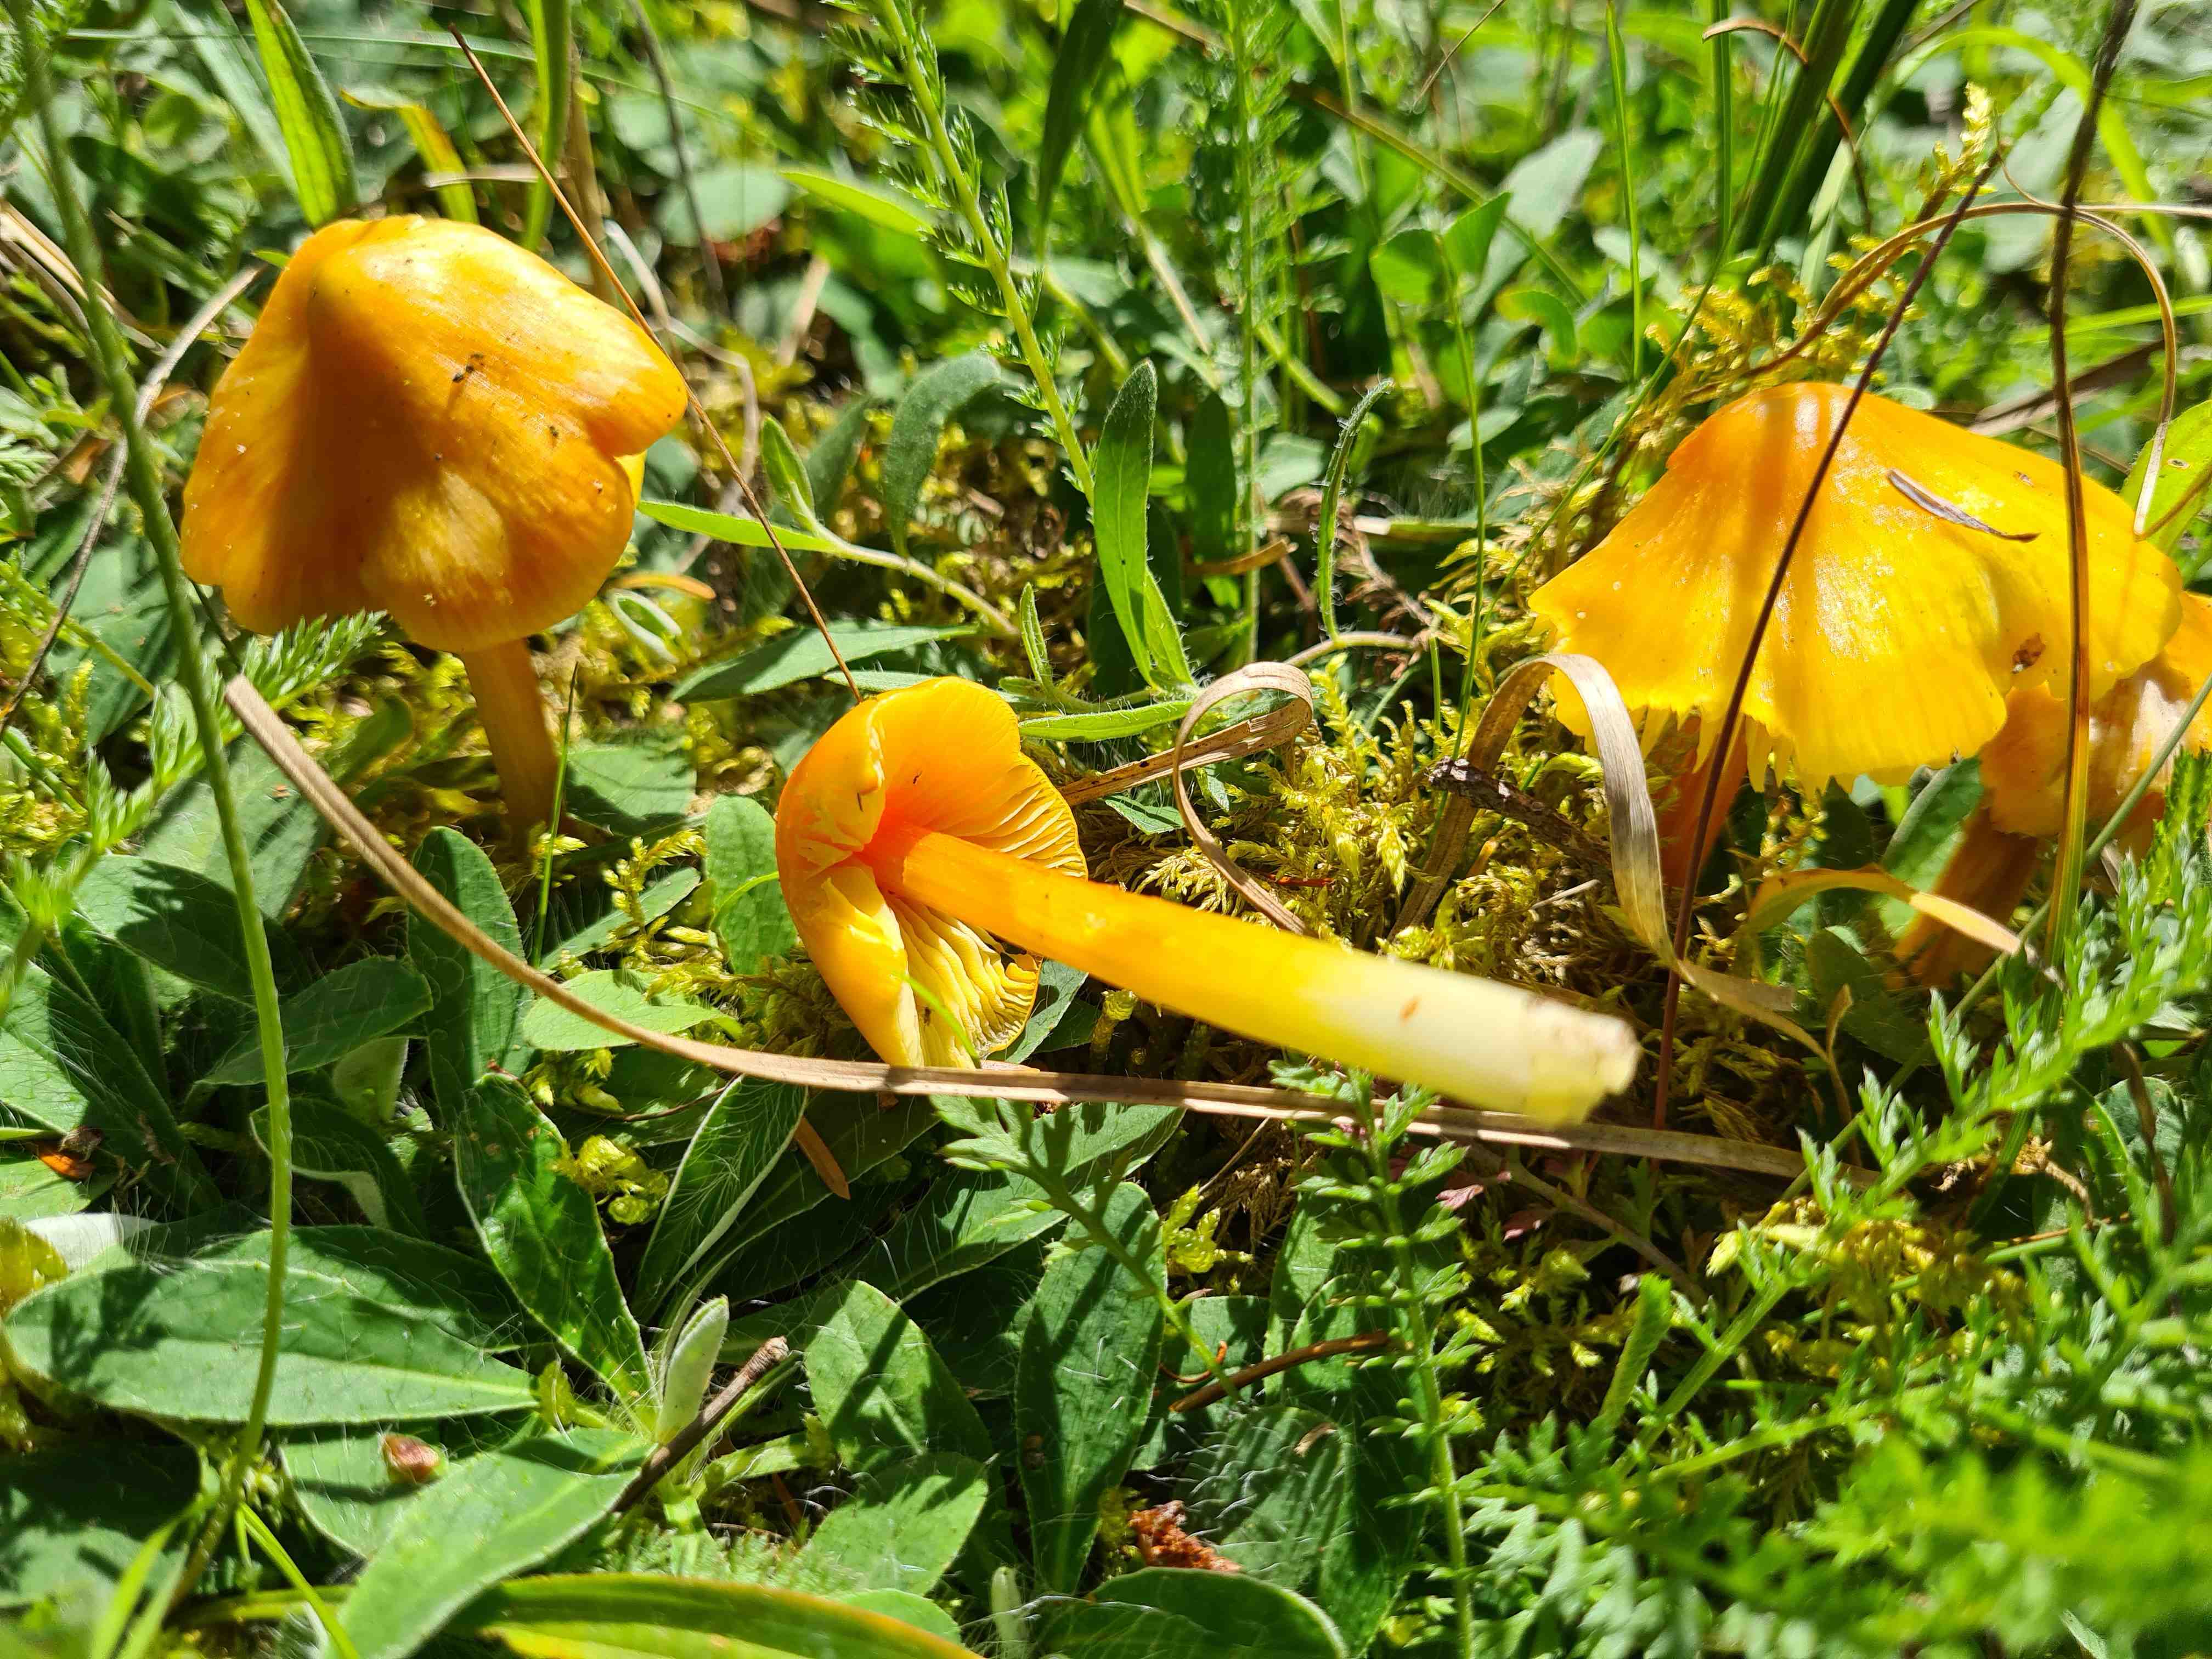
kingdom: Fungi
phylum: Basidiomycota
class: Agaricomycetes
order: Agaricales
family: Hygrophoraceae
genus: Hygrocybe
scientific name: Hygrocybe conica
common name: kegle-vokshat
